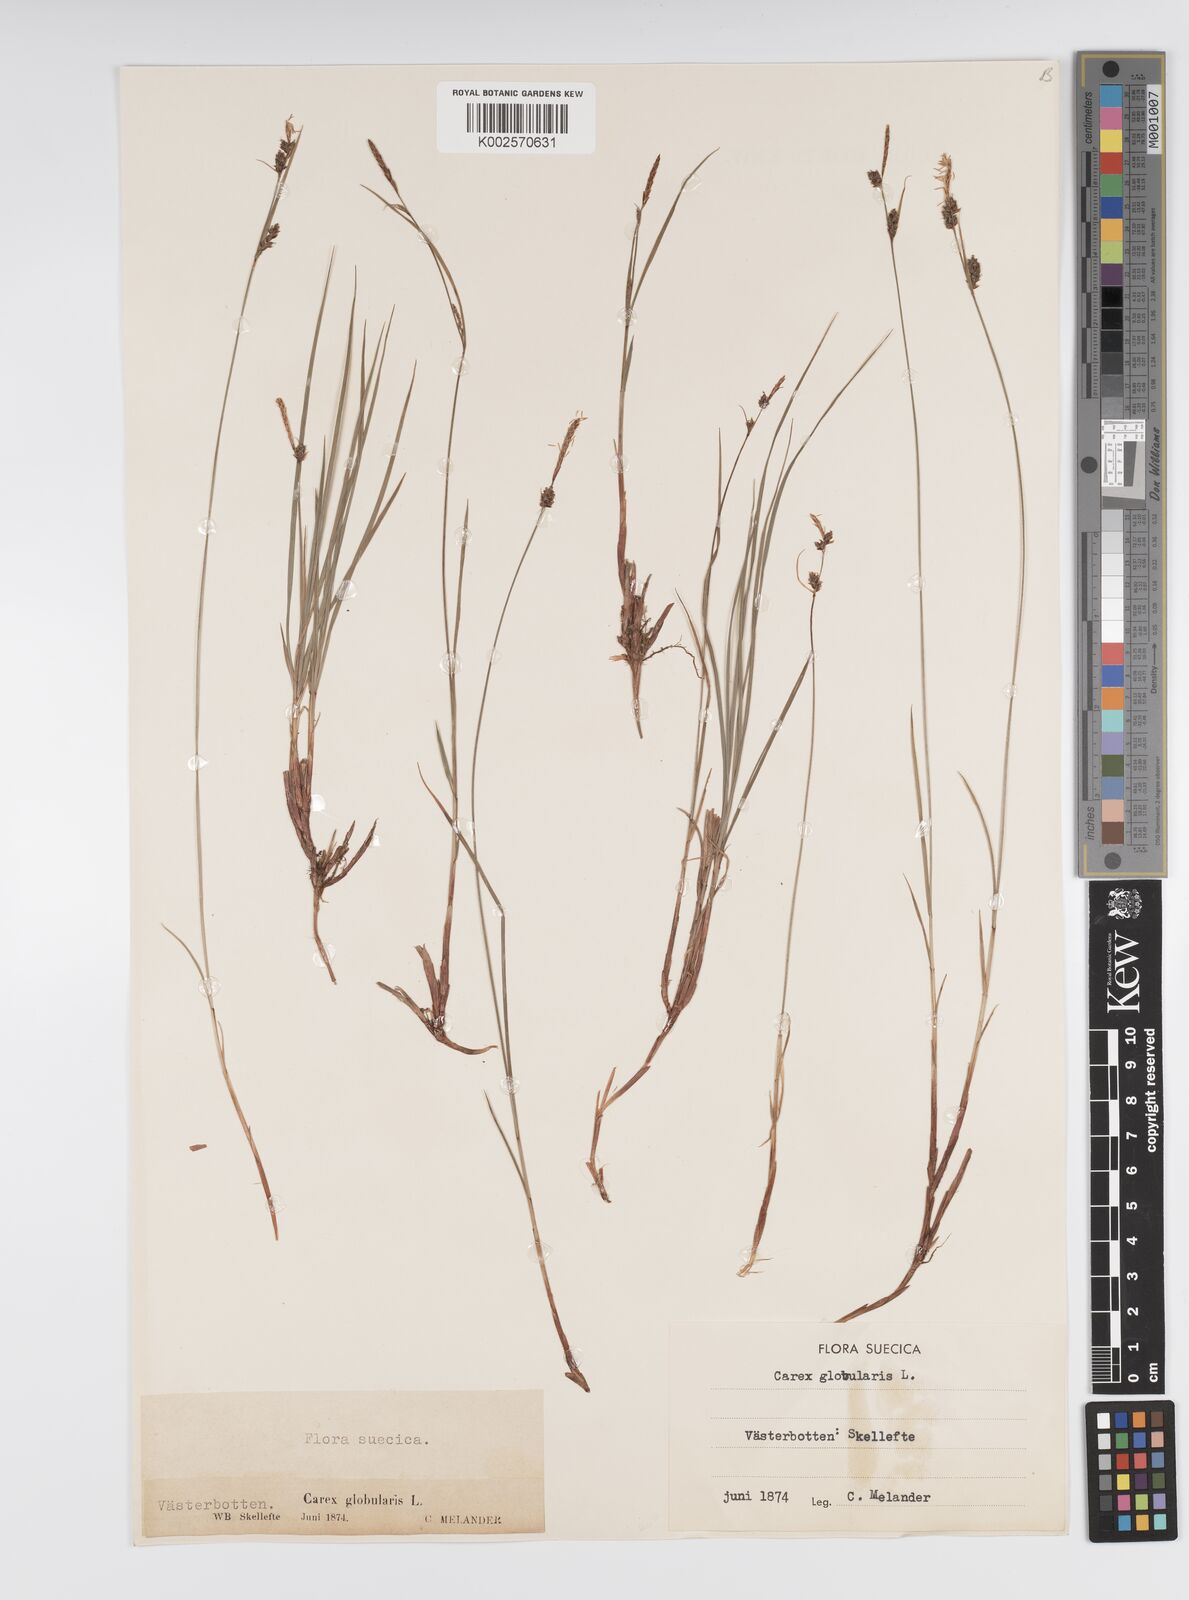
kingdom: Plantae
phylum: Tracheophyta
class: Liliopsida
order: Poales
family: Cyperaceae
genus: Carex
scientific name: Carex globularis
